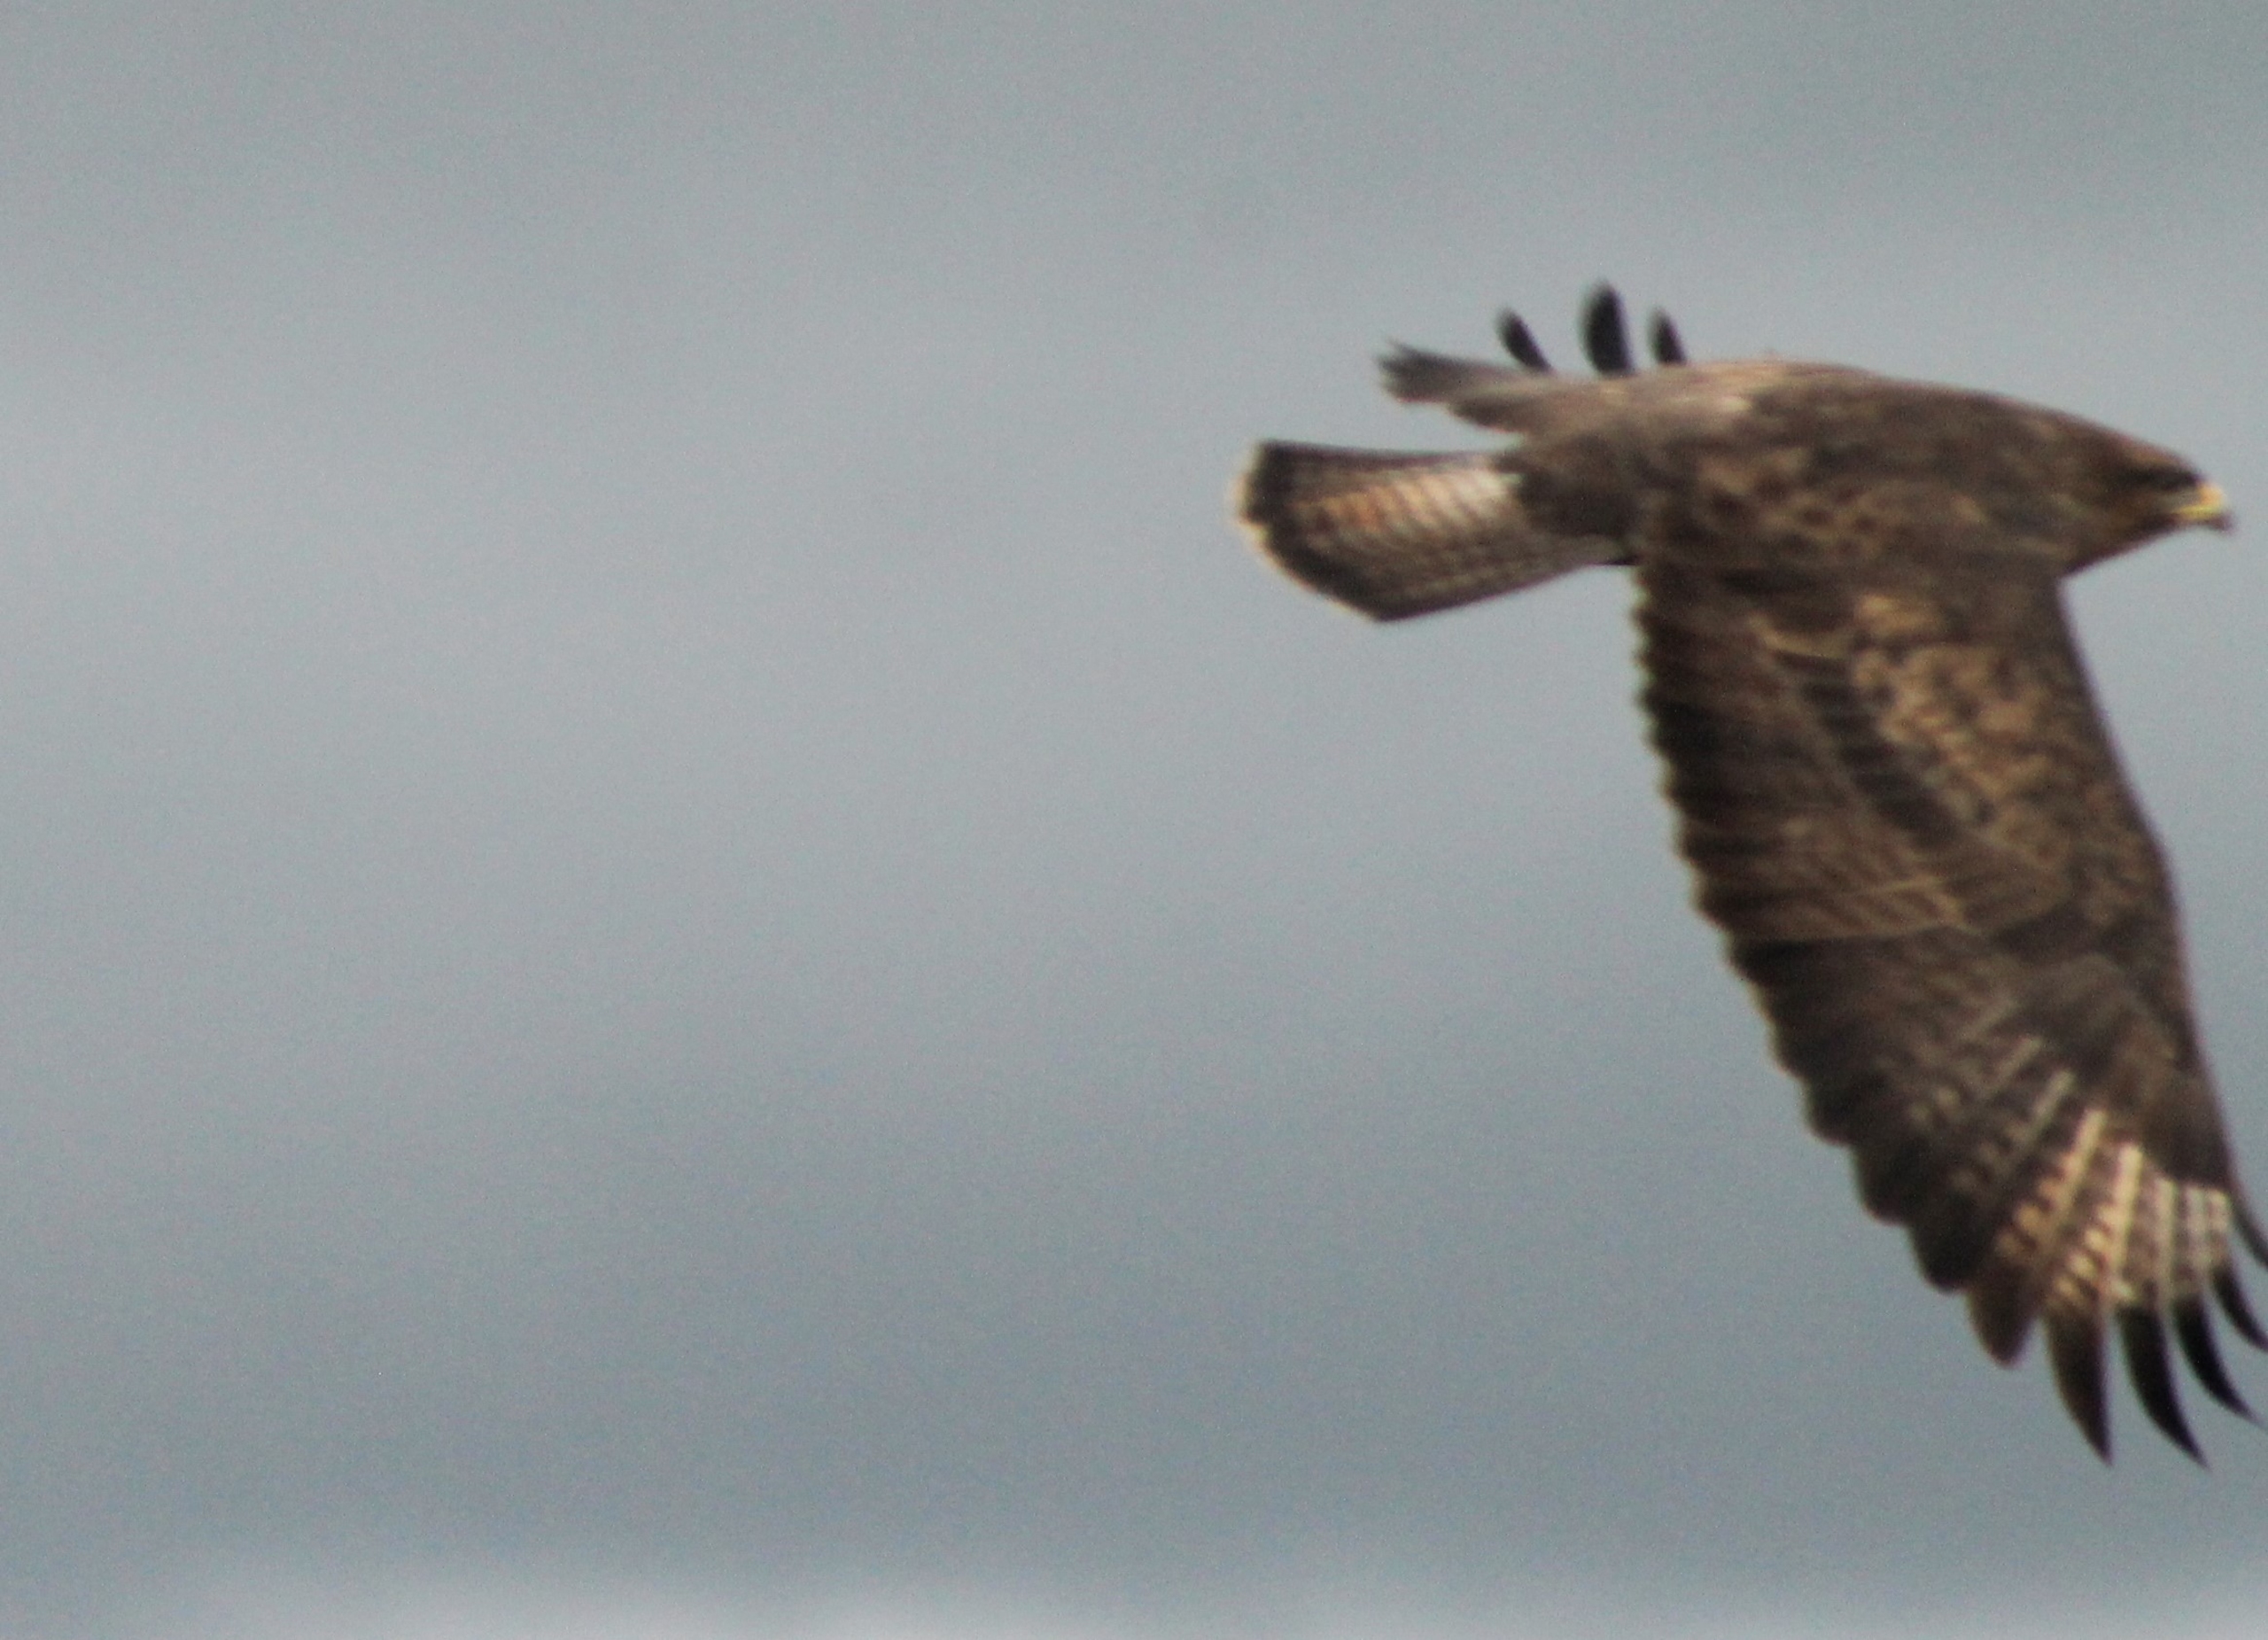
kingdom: Animalia
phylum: Chordata
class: Aves
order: Accipitriformes
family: Accipitridae
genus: Buteo
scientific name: Buteo buteo
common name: Musvåge
